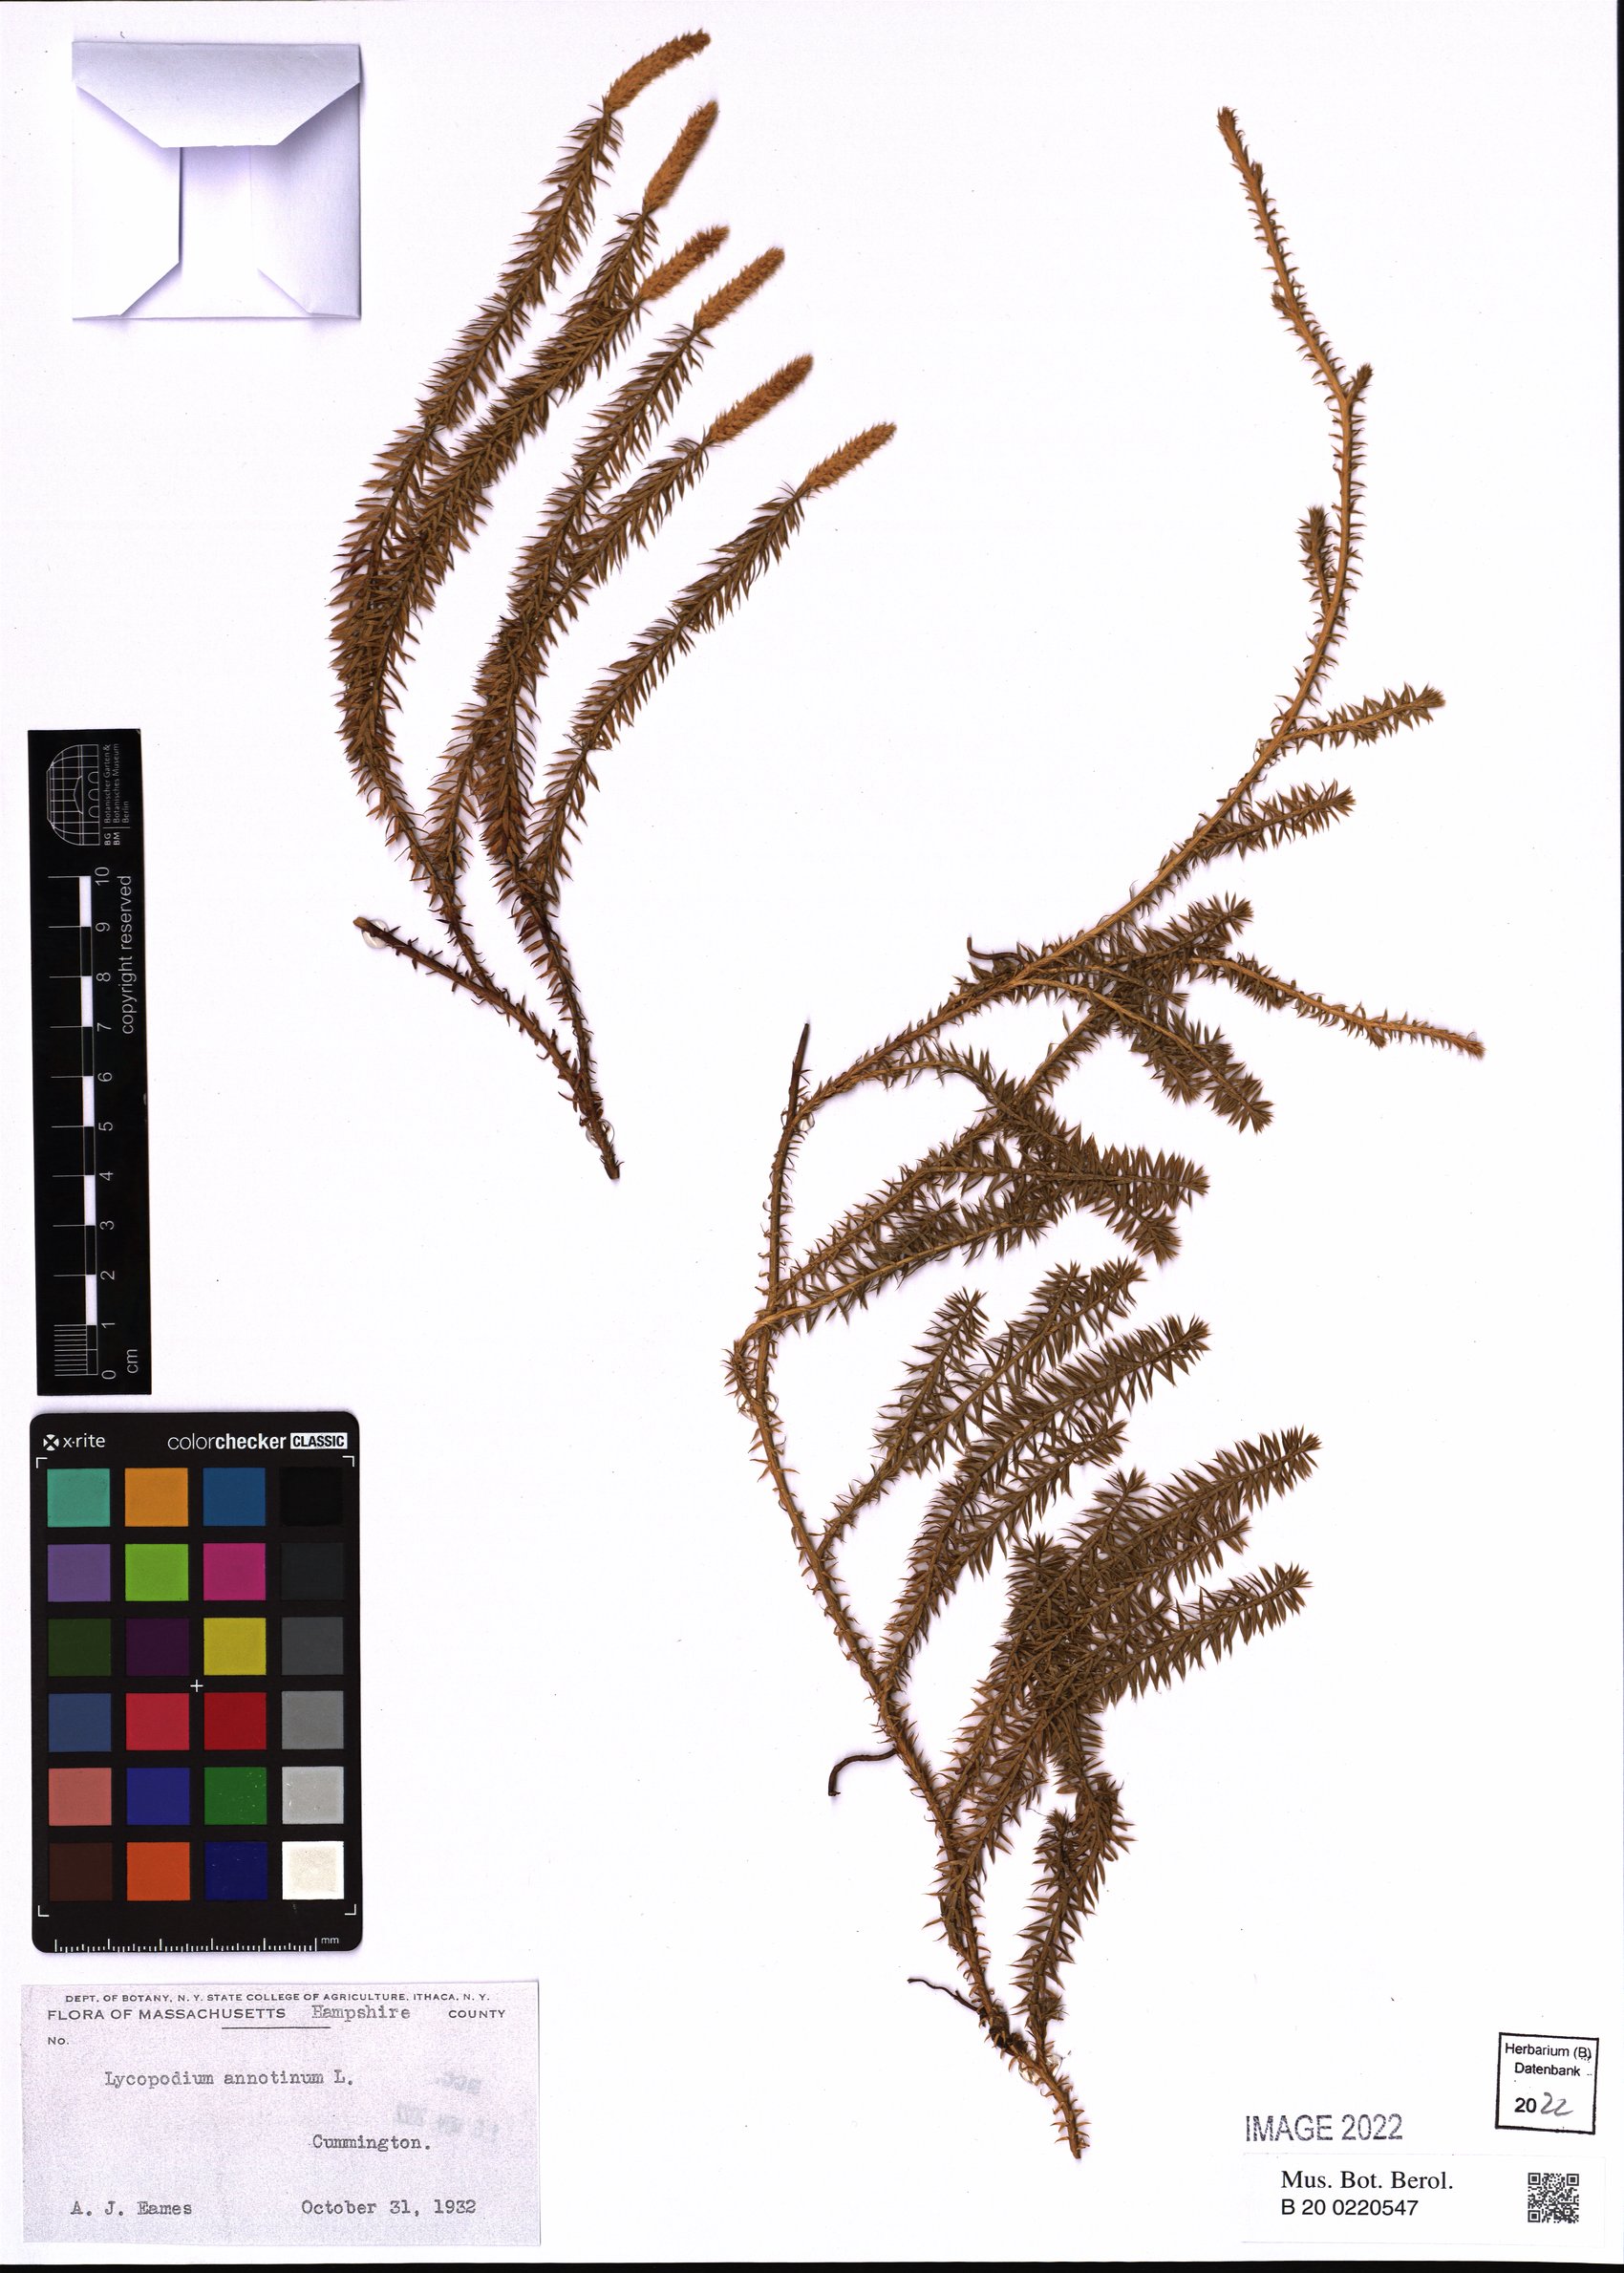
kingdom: Plantae
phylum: Tracheophyta
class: Lycopodiopsida
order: Lycopodiales
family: Lycopodiaceae
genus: Spinulum
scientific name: Spinulum annotinum
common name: Interrupted club-moss
